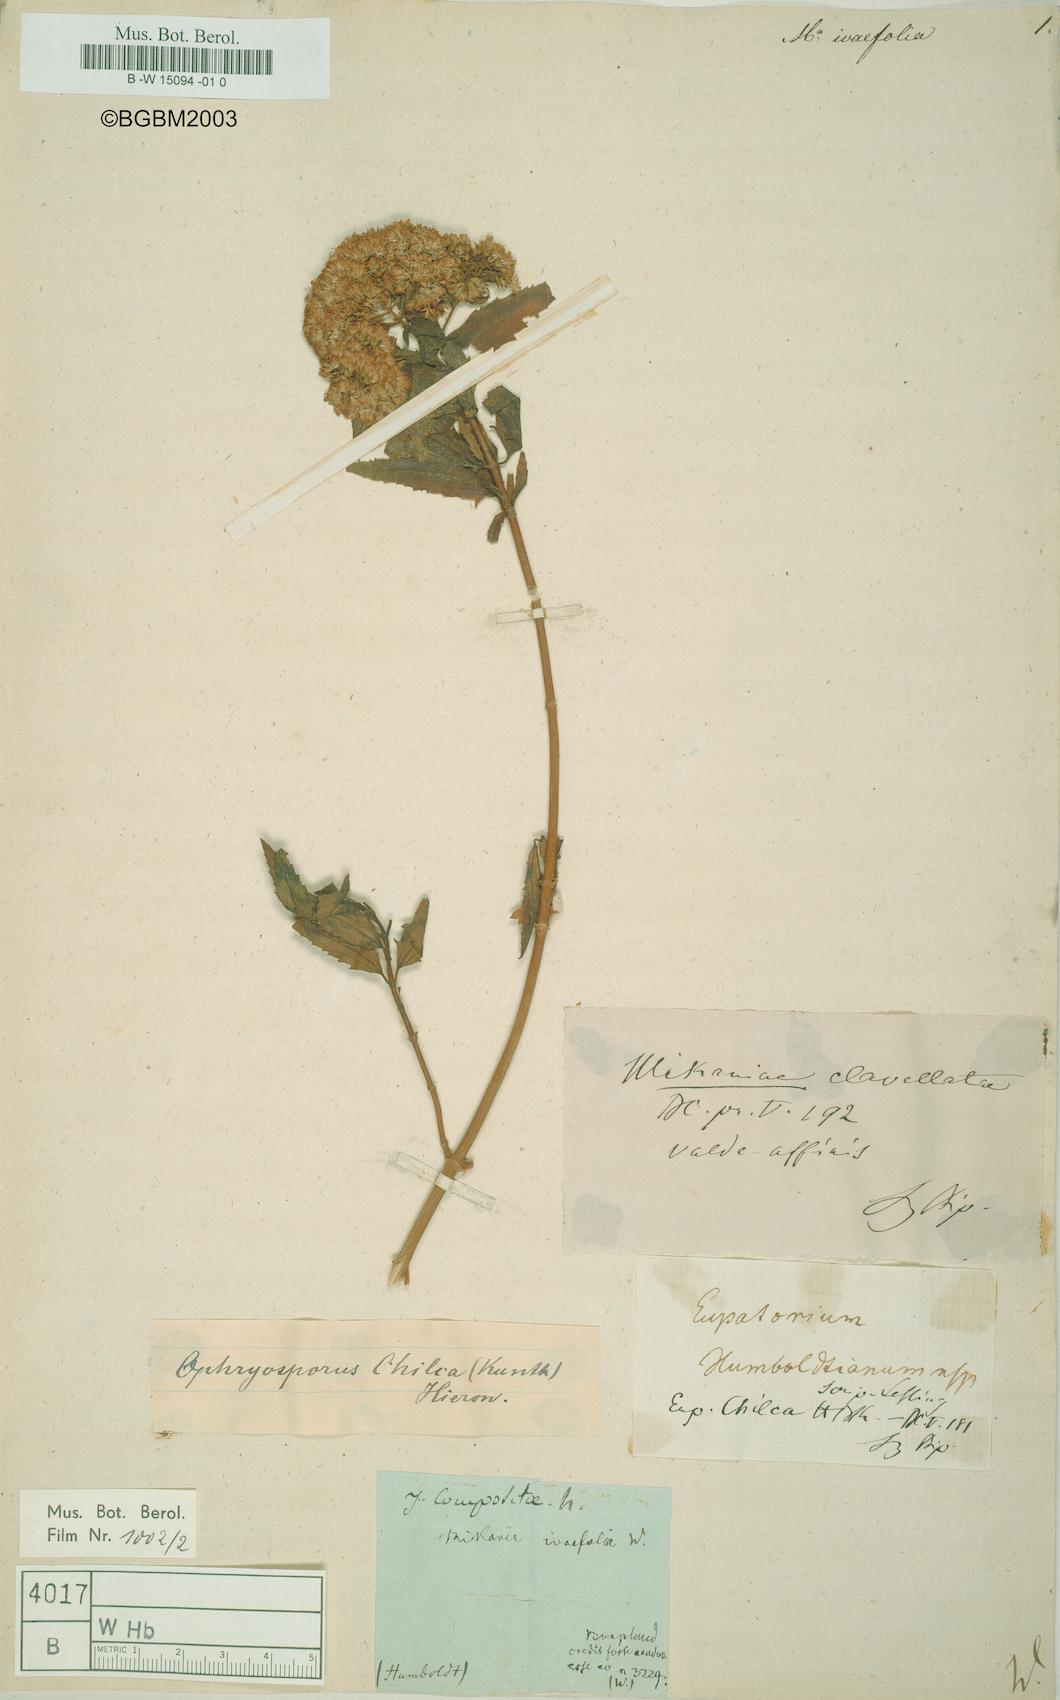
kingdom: Plantae
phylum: Tracheophyta
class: Magnoliopsida
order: Asterales
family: Asteraceae
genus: Mikania
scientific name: Mikania
